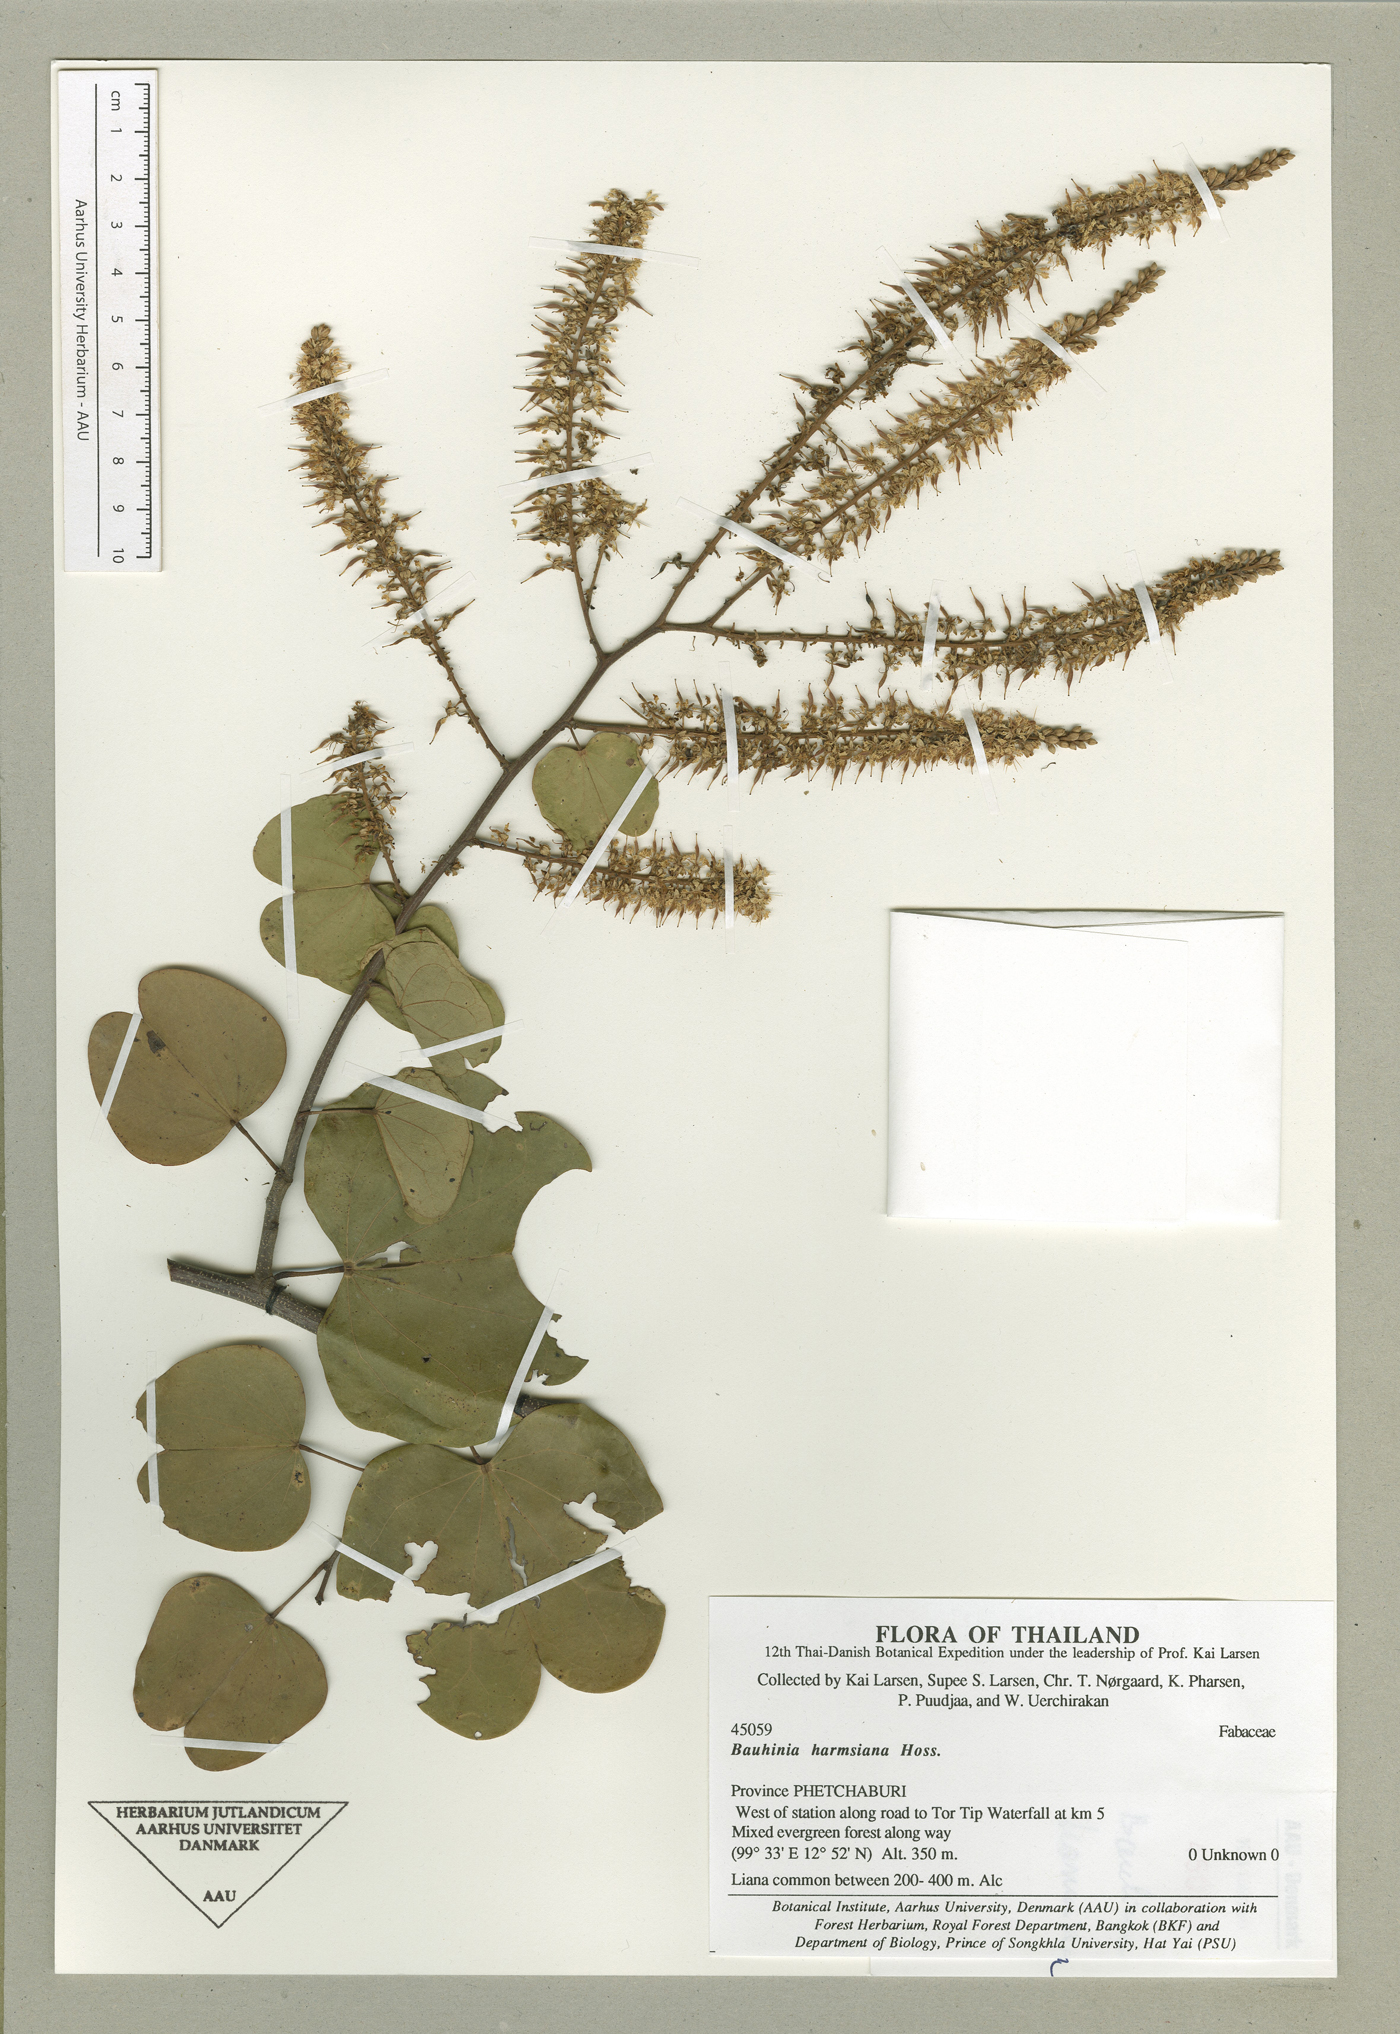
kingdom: Plantae
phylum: Tracheophyta
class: Magnoliopsida
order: Fabales
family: Fabaceae
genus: Phanera
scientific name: Phanera harmsiana
